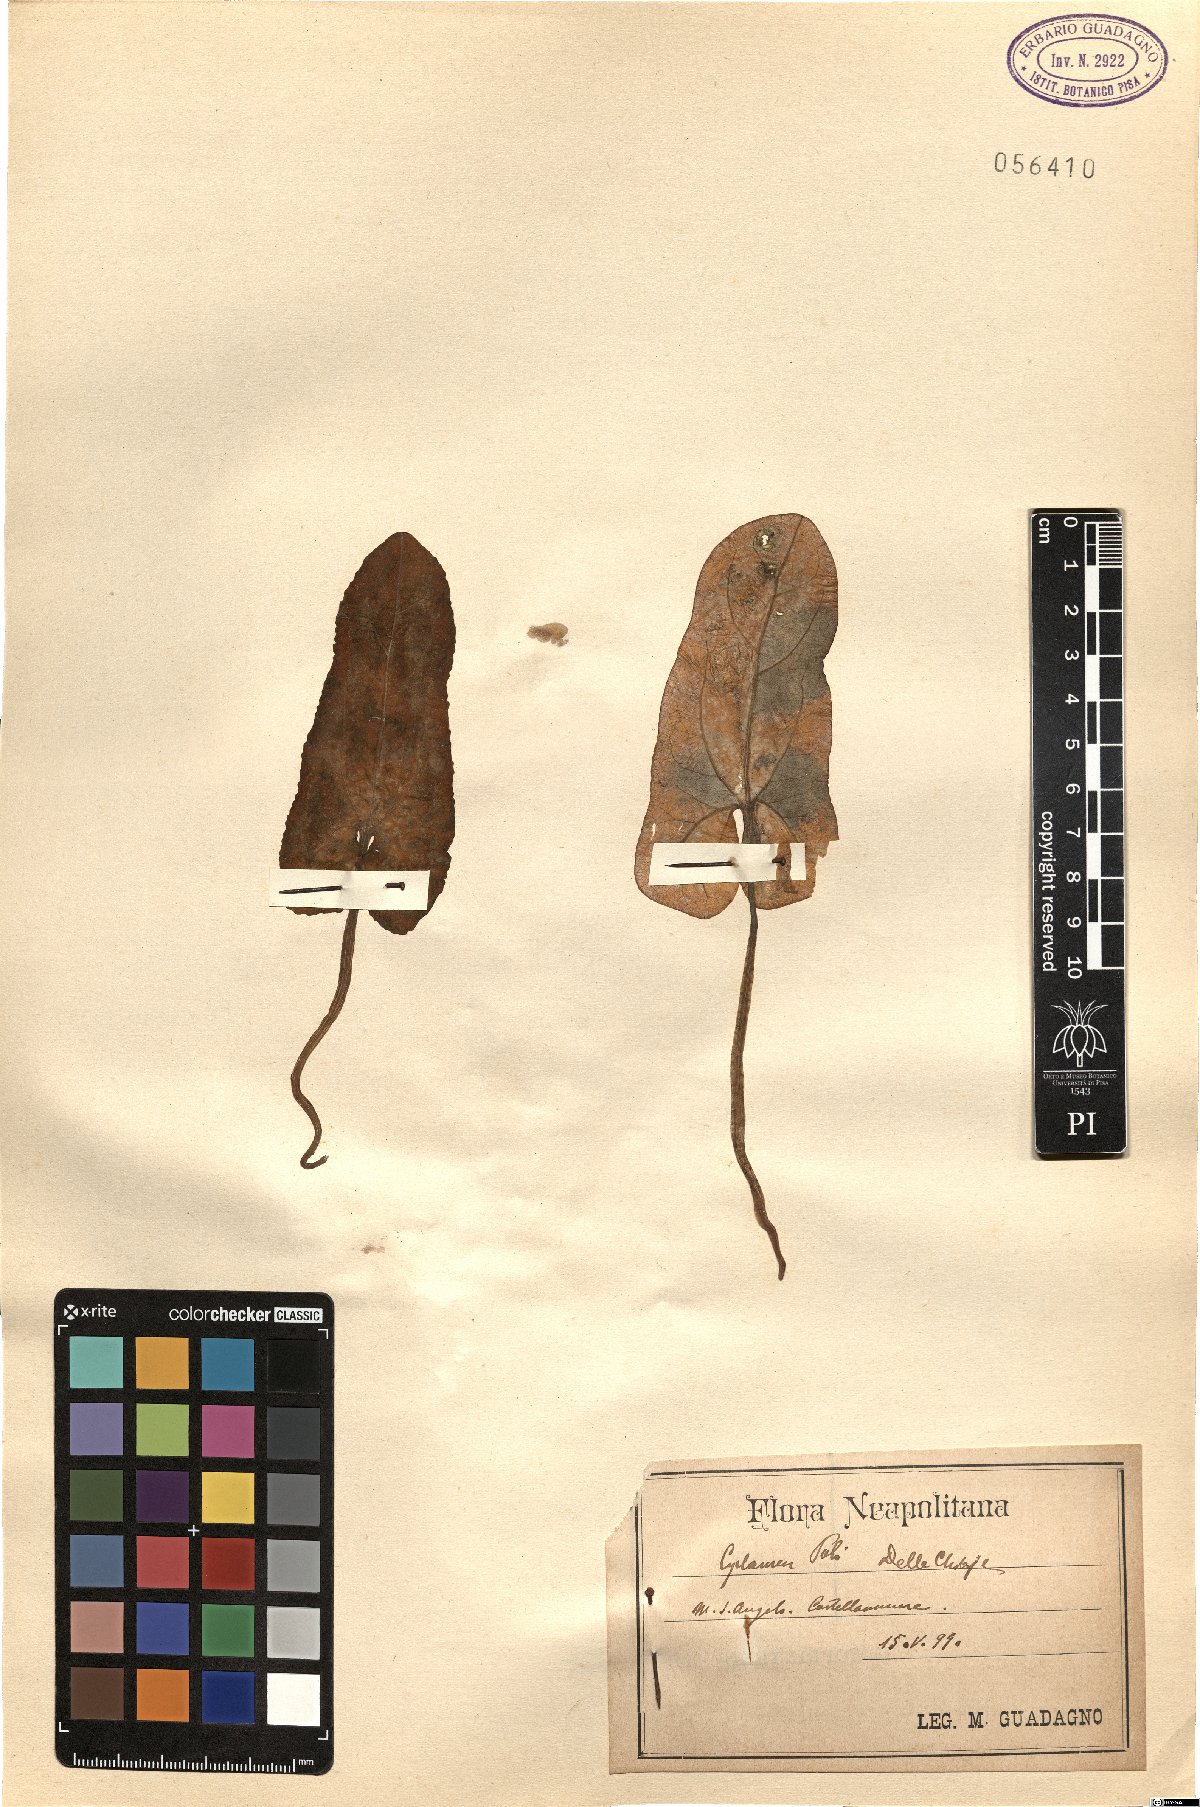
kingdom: Plantae
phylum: Tracheophyta
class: Magnoliopsida
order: Ericales
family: Primulaceae
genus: Cyclamen
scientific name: Cyclamen hederifolium
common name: Sowbread
